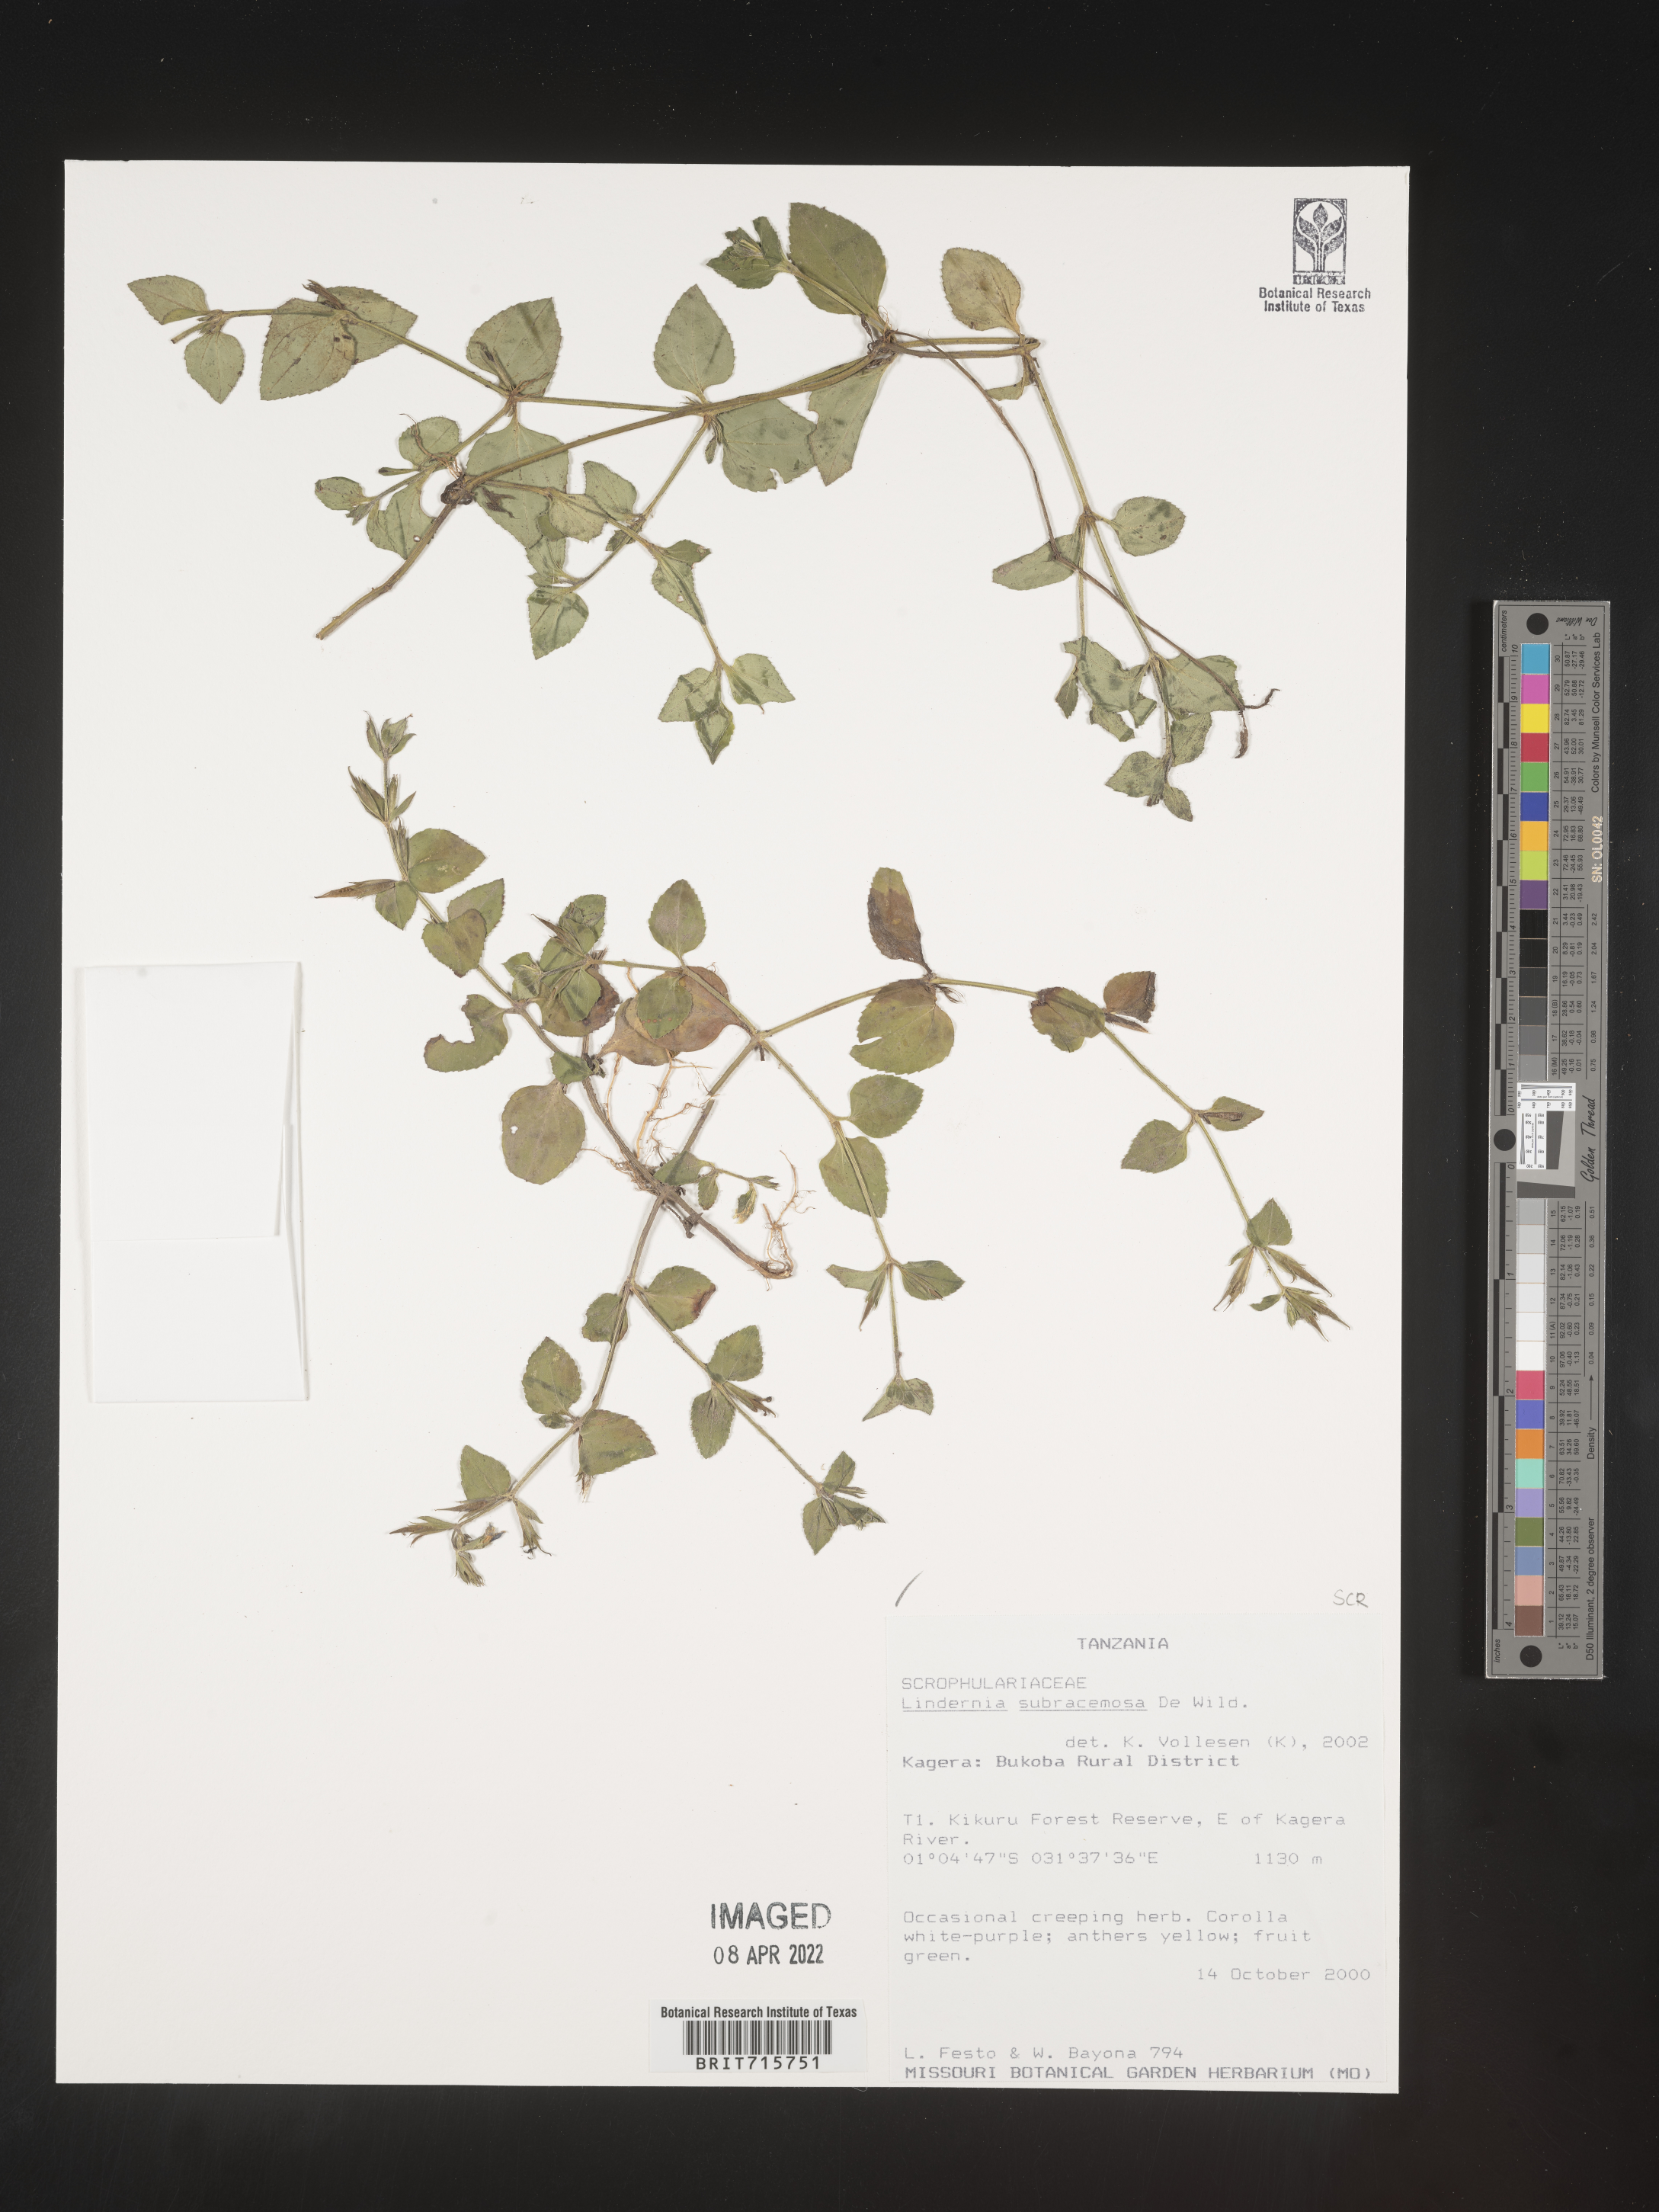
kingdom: Plantae
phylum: Tracheophyta
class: Magnoliopsida
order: Lamiales
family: Linderniaceae
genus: Lindernia
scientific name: Lindernia
